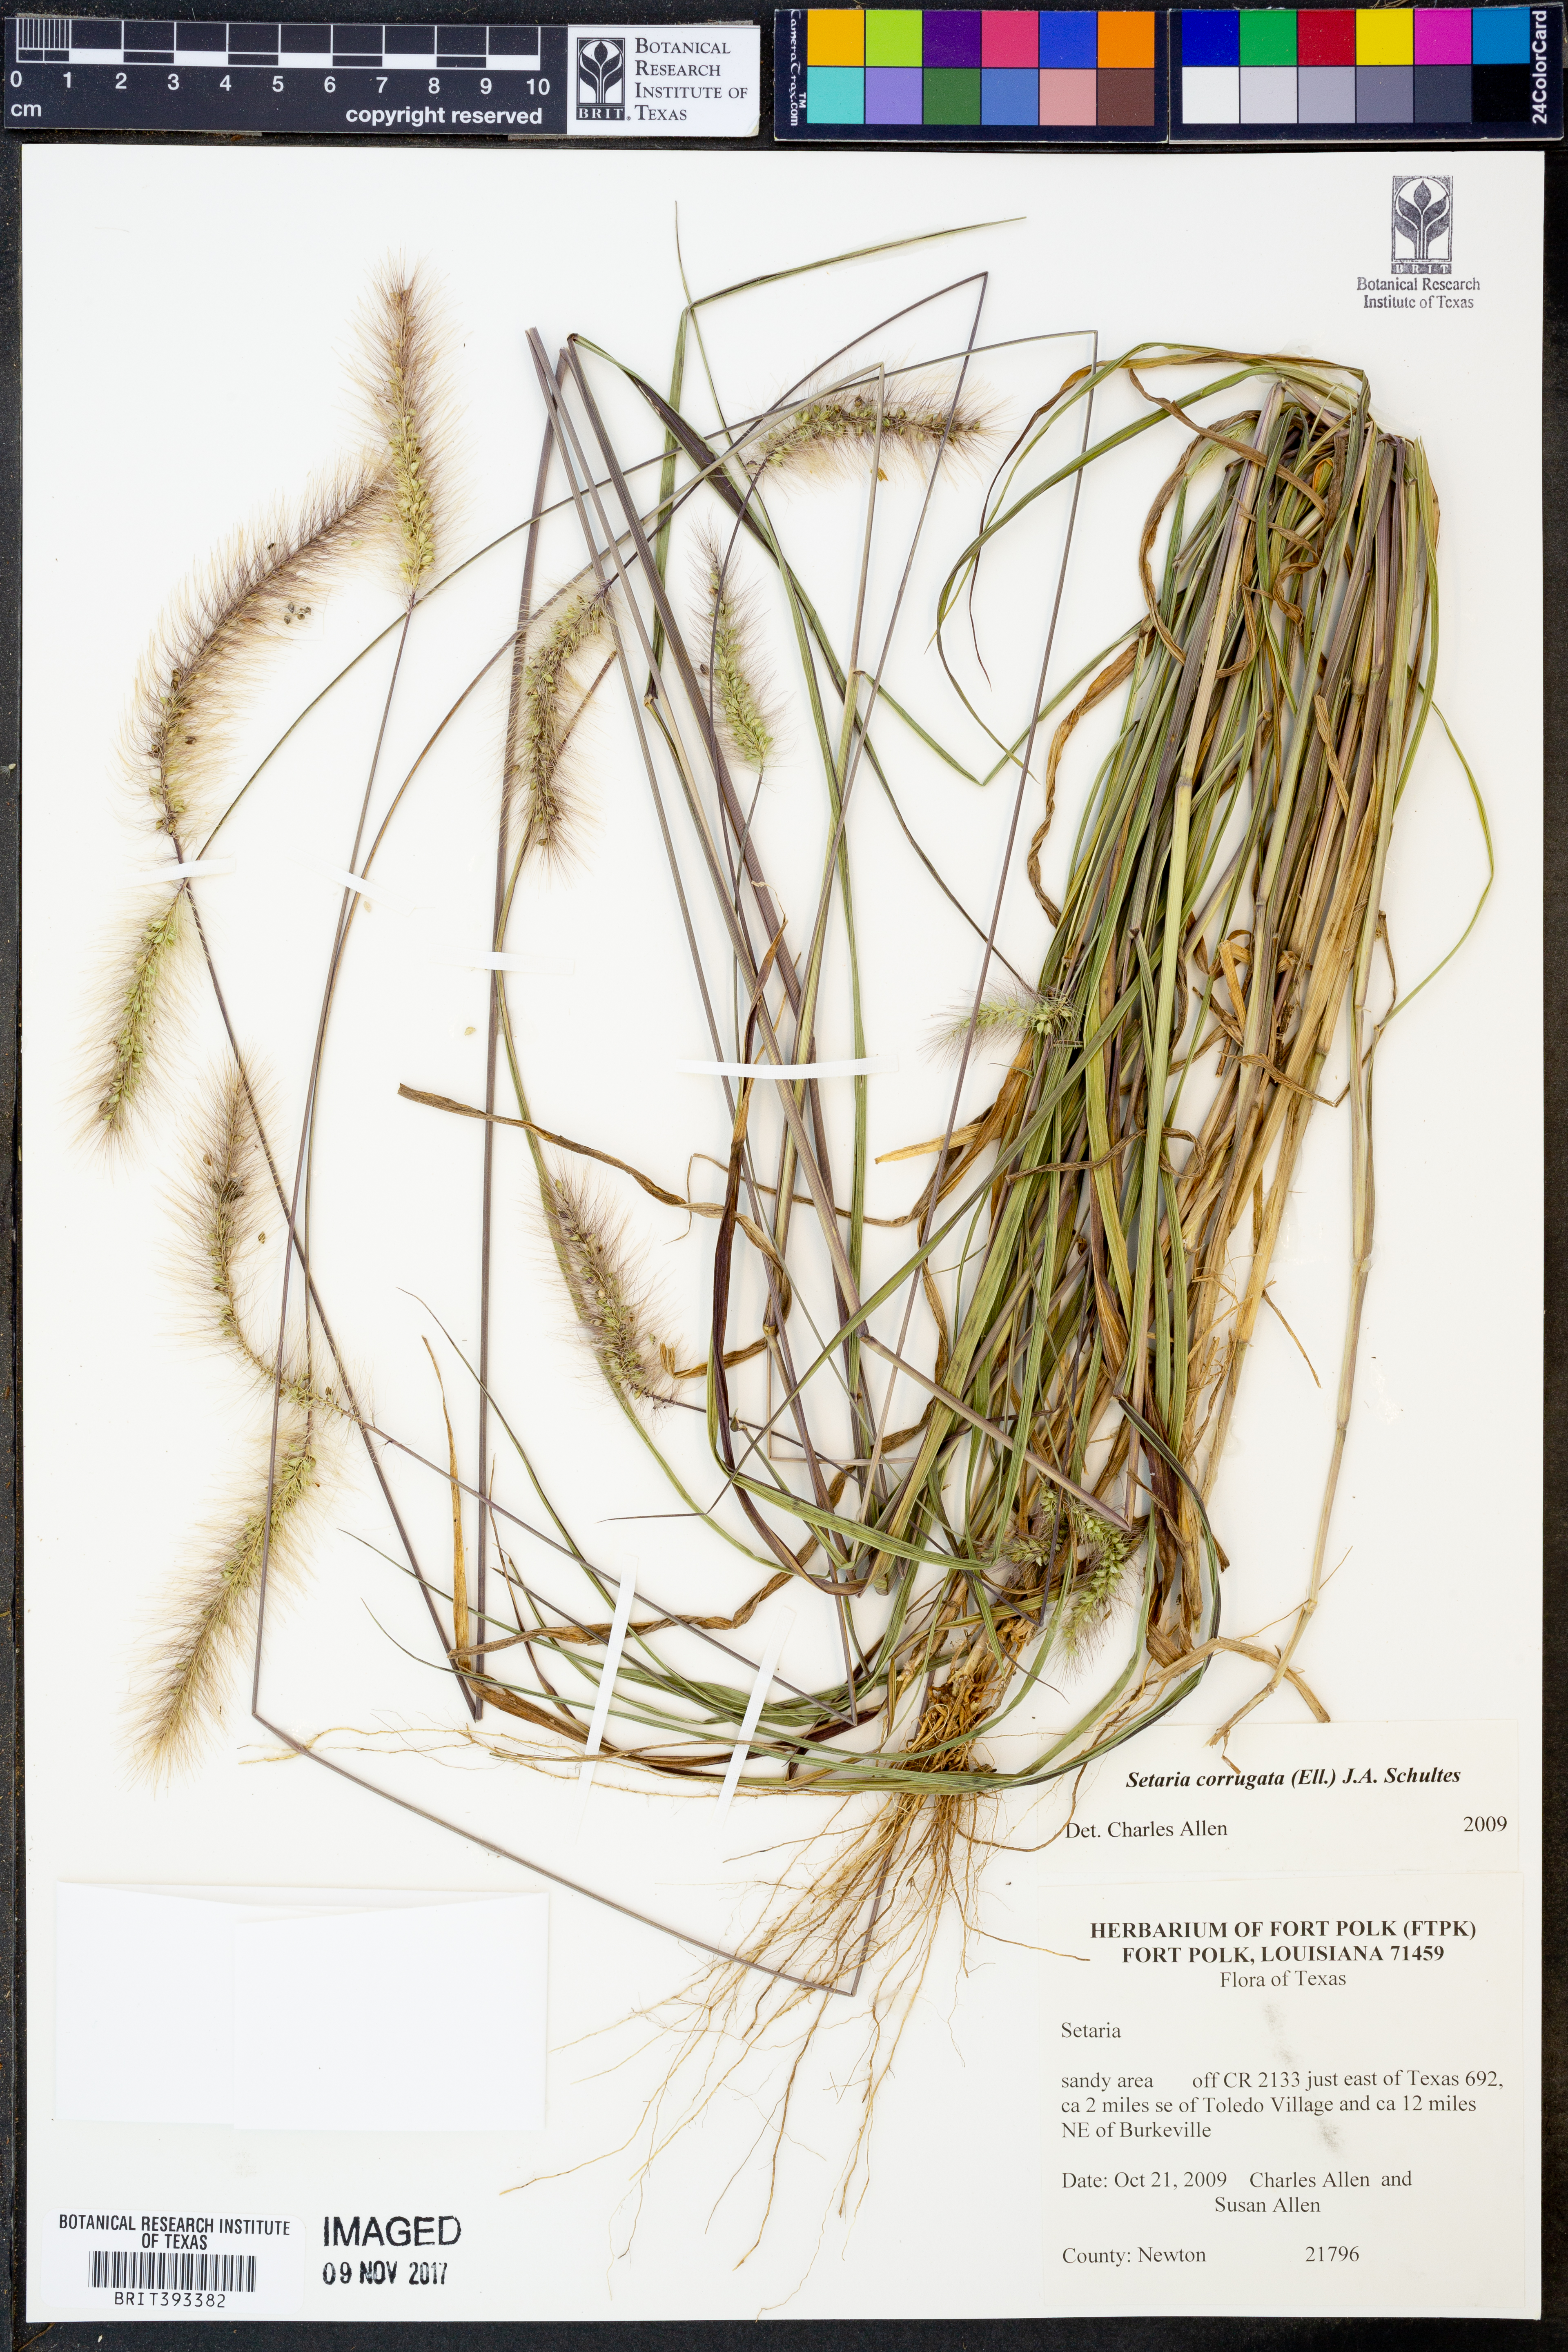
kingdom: Plantae
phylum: Tracheophyta
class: Liliopsida
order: Poales
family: Poaceae
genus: Setaria
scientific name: Setaria corrugata
